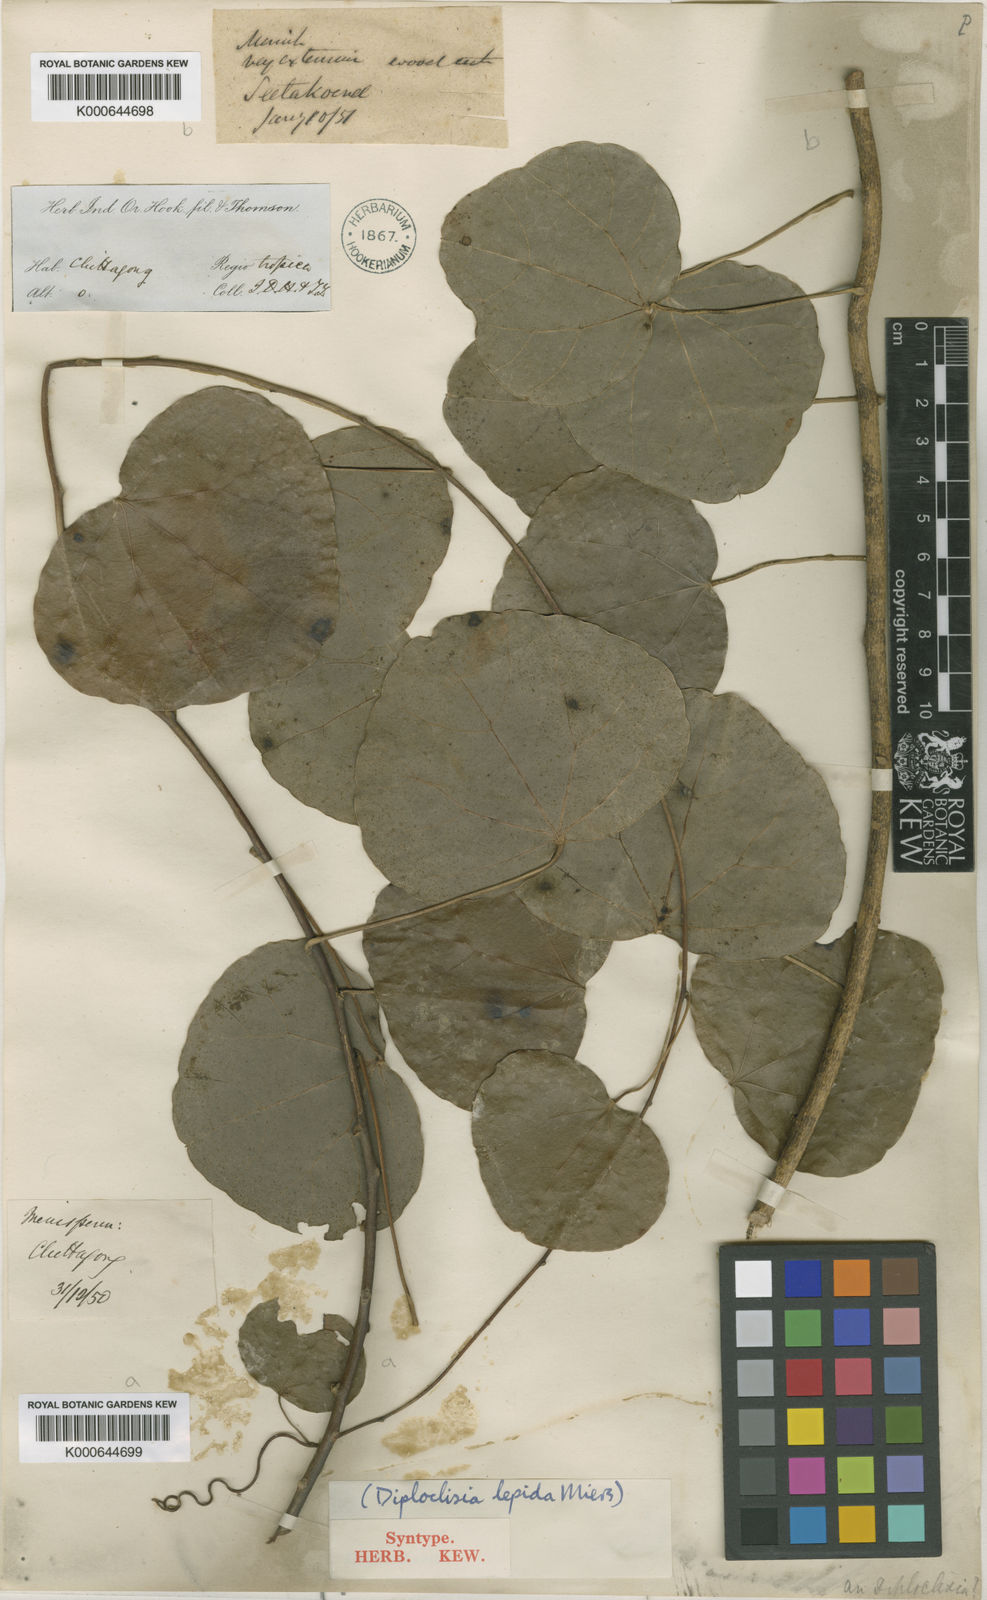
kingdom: Plantae
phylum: Tracheophyta
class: Magnoliopsida
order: Ranunculales
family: Menispermaceae
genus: Diploclisia
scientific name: Diploclisia glaucescens
